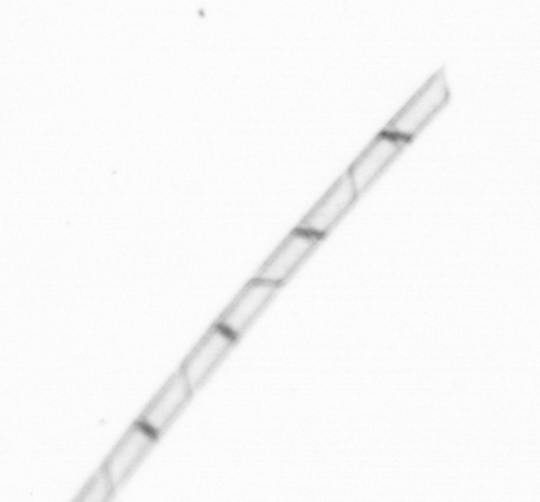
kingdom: Chromista
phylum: Ochrophyta
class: Bacillariophyceae
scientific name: Bacillariophyceae
